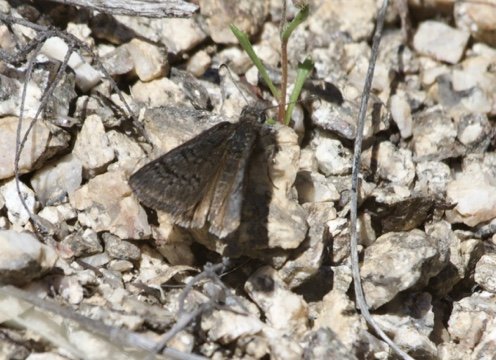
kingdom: Animalia
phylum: Arthropoda
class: Insecta
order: Lepidoptera
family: Hesperiidae
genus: Erynnis
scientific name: Erynnis brizo
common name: Sleepy Duskywing
